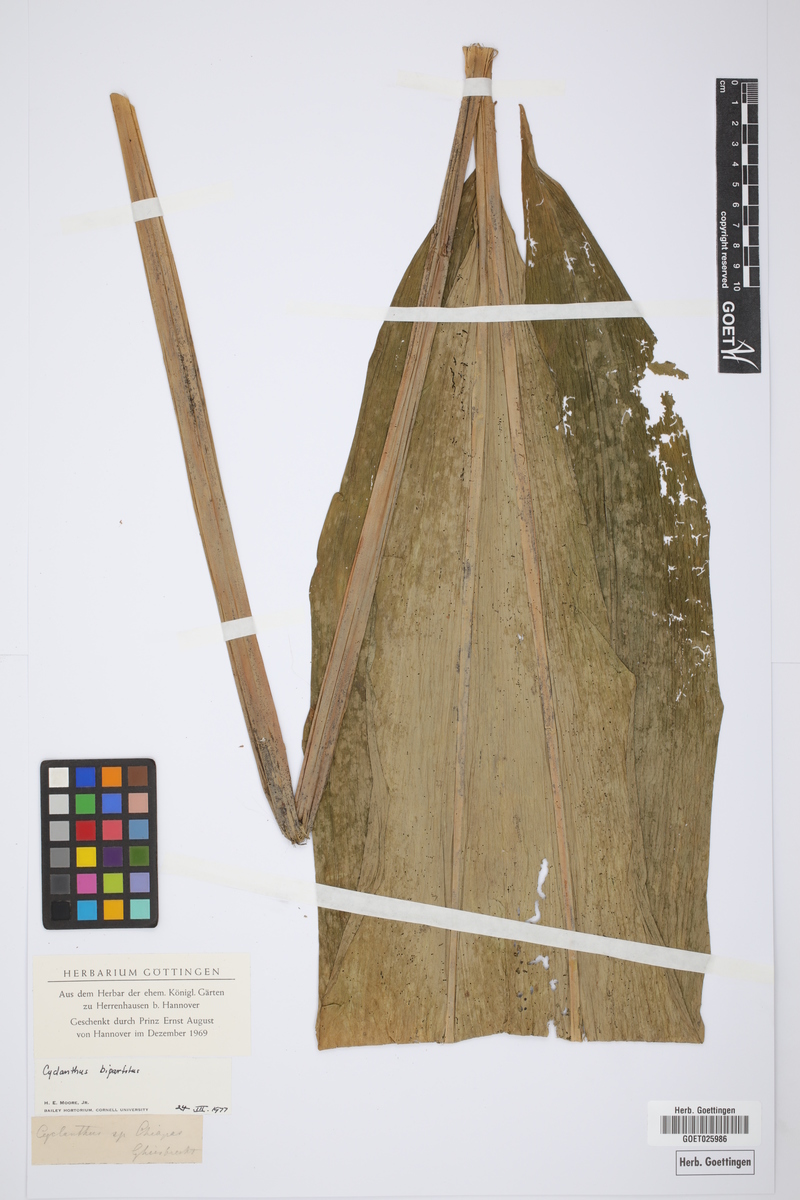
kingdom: Plantae
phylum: Tracheophyta
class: Liliopsida
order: Pandanales
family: Cyclanthaceae
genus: Cyclanthus
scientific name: Cyclanthus bipartitus
